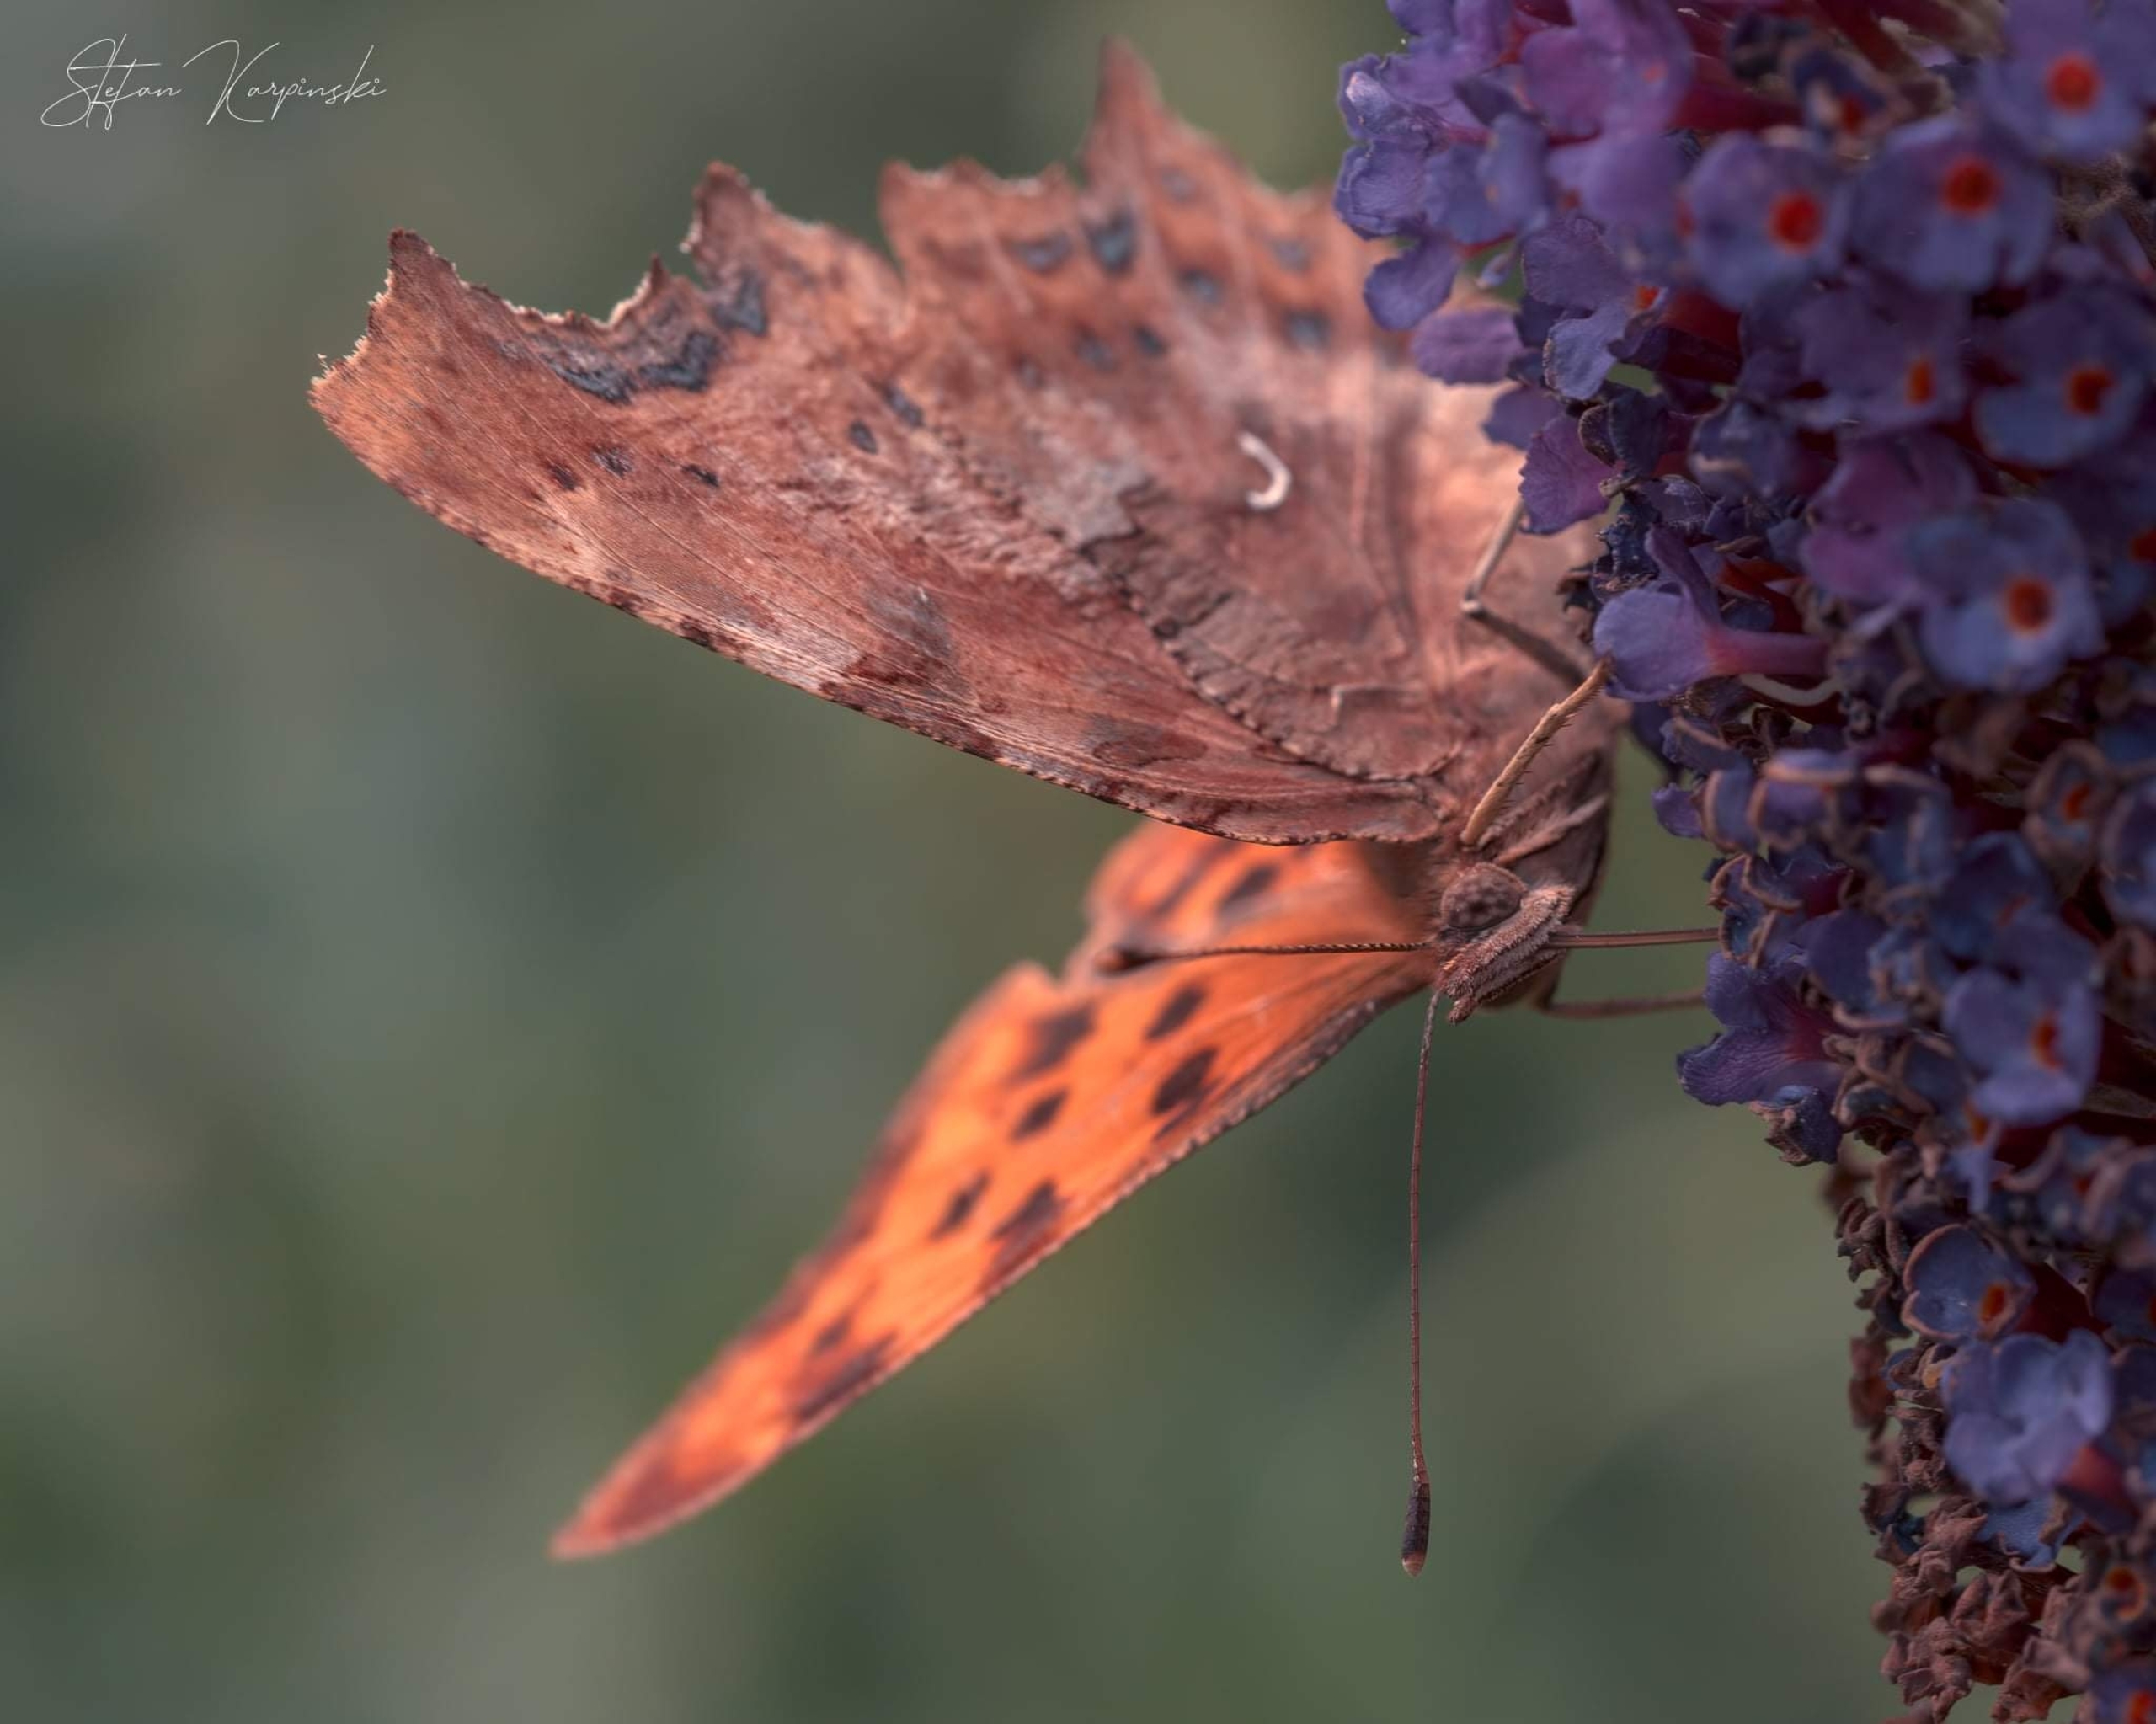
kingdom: Animalia
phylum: Arthropoda
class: Insecta
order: Lepidoptera
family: Nymphalidae
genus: Polygonia
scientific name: Polygonia c-album
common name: Det hvide C
